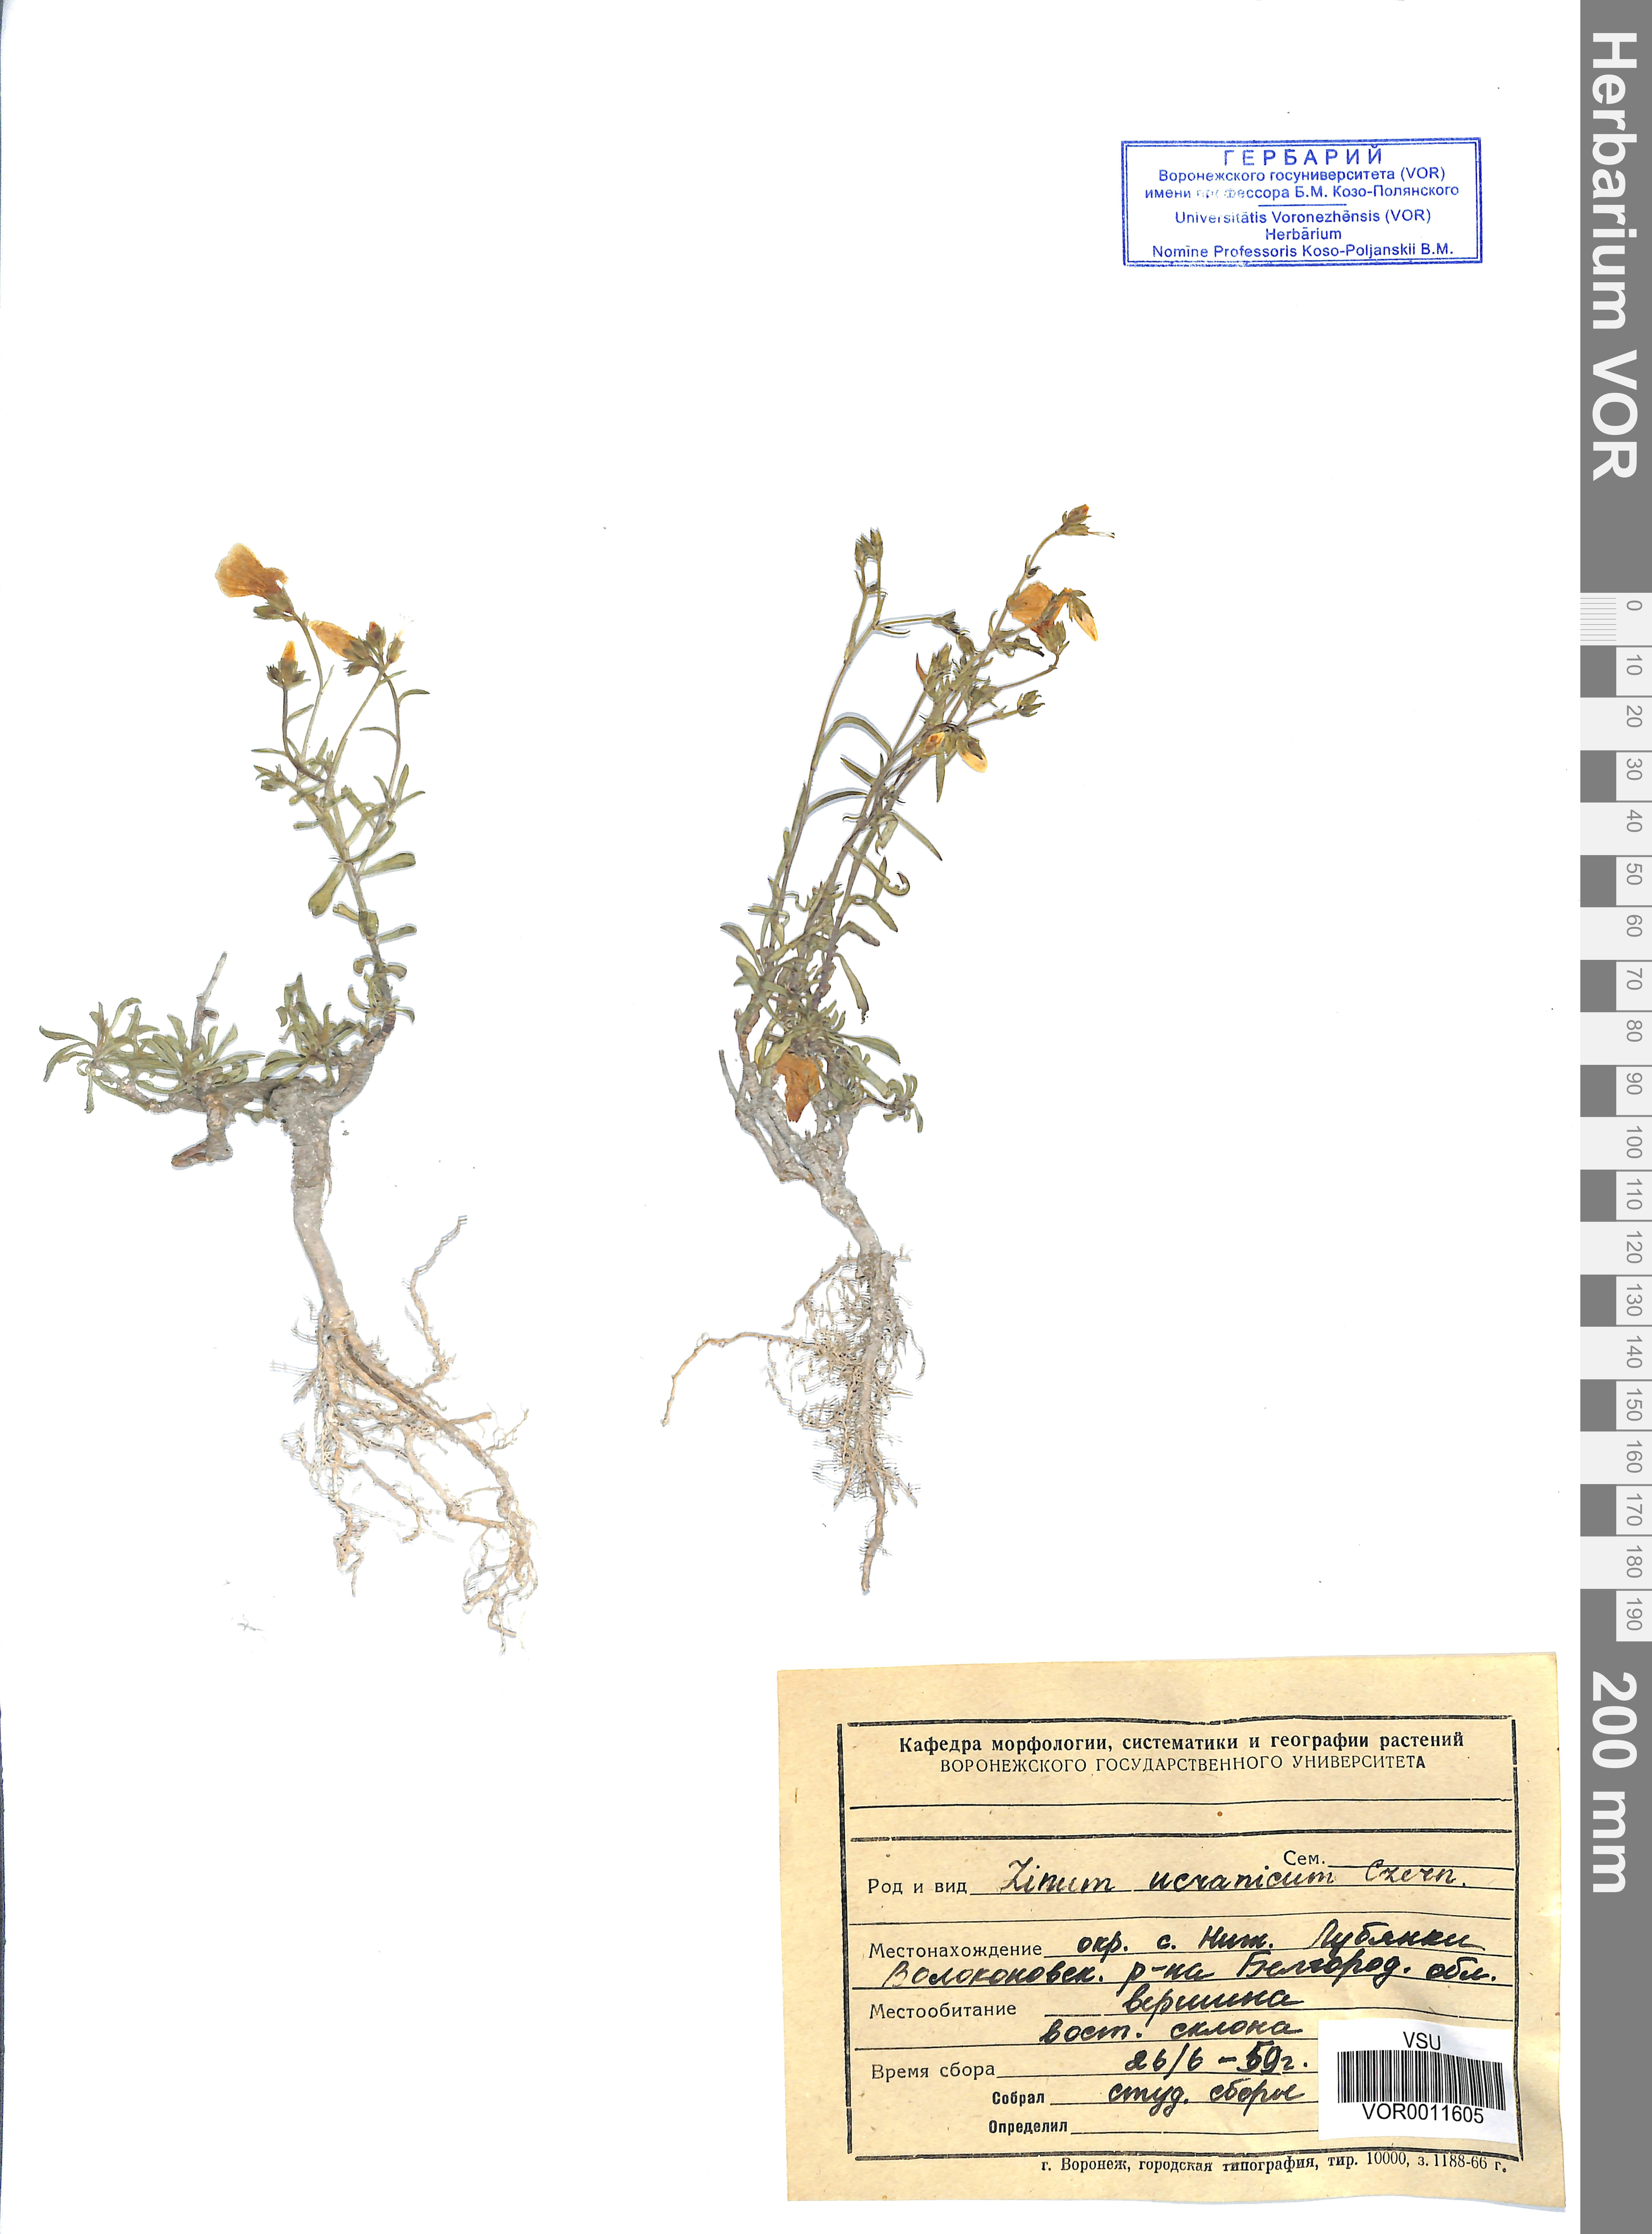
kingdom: Plantae
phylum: Tracheophyta
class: Magnoliopsida
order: Malpighiales
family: Linaceae
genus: Linum
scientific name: Linum ucranicum
